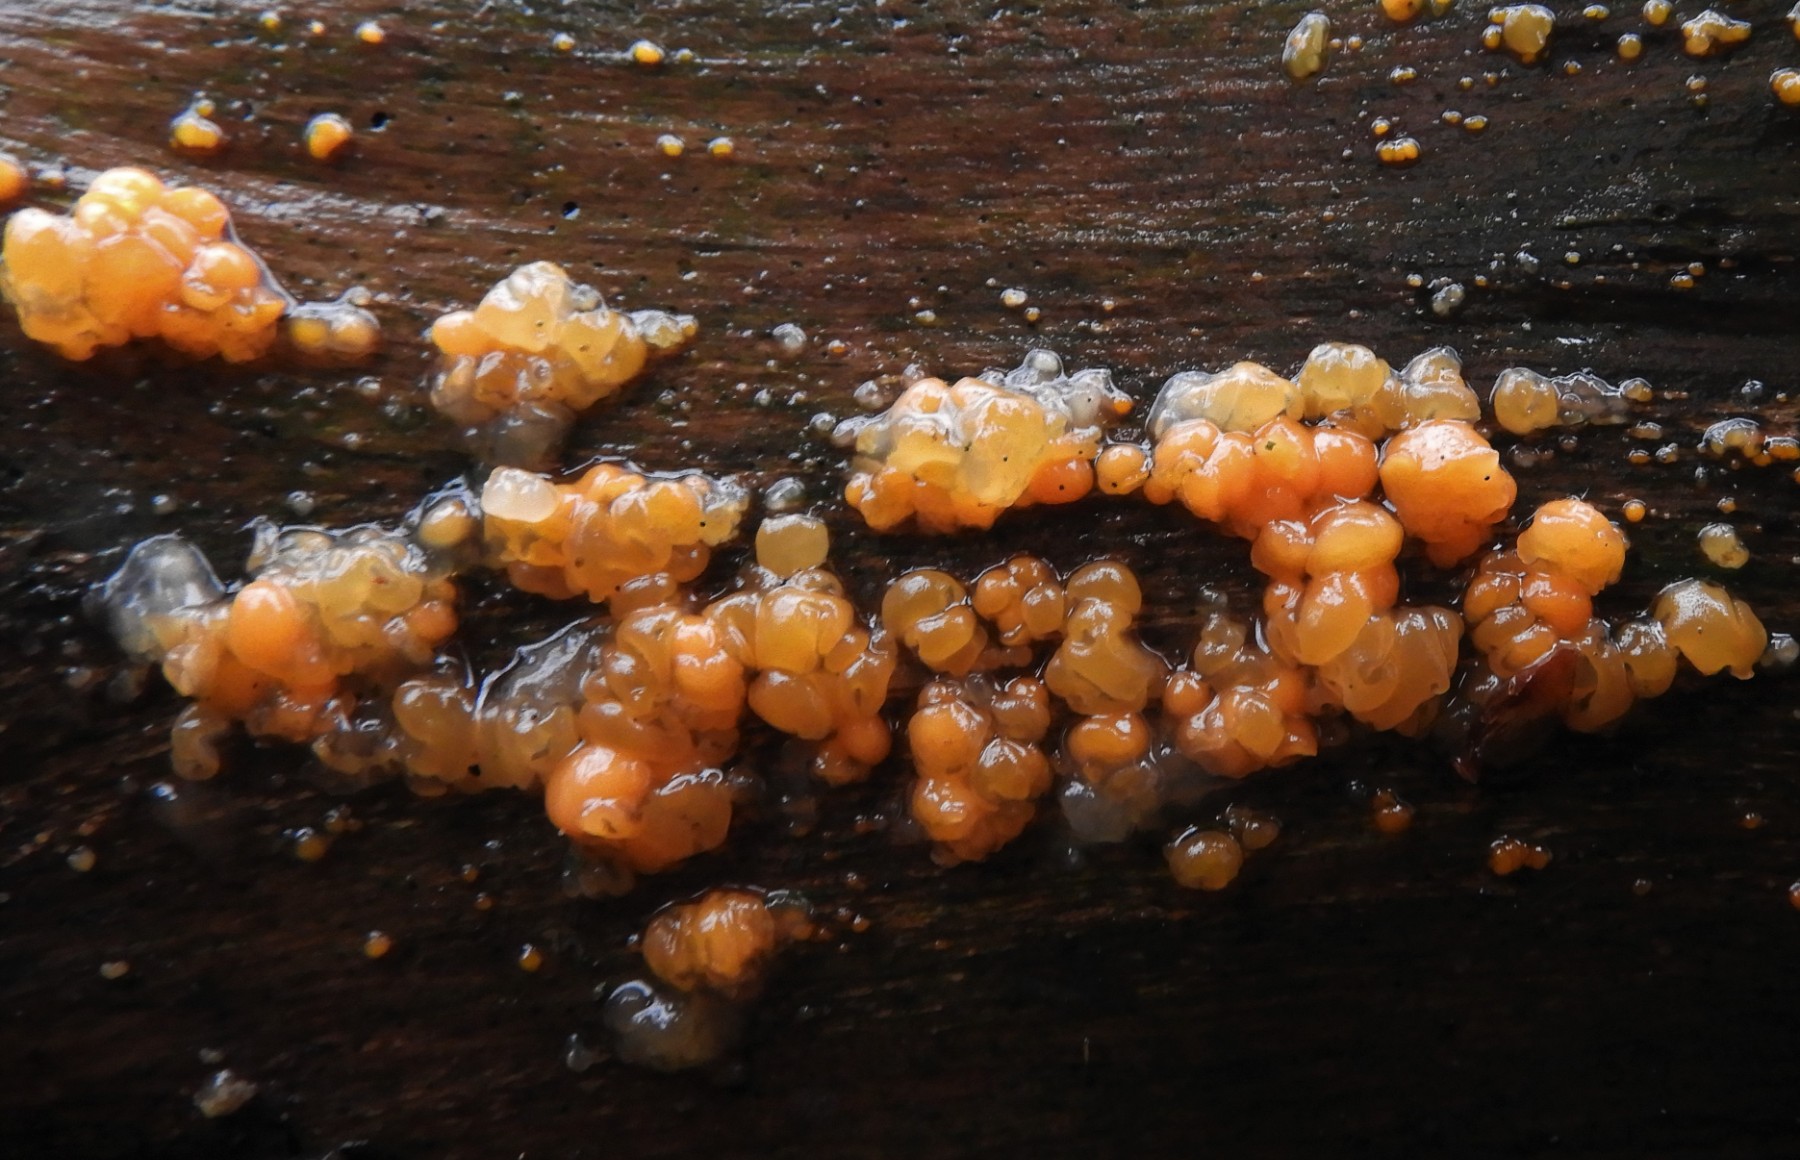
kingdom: Fungi
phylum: Basidiomycota
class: Dacrymycetes
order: Dacrymycetales
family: Dacrymycetaceae
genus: Dacrymyces
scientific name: Dacrymyces stillatus
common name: almindelig tåresvamp
